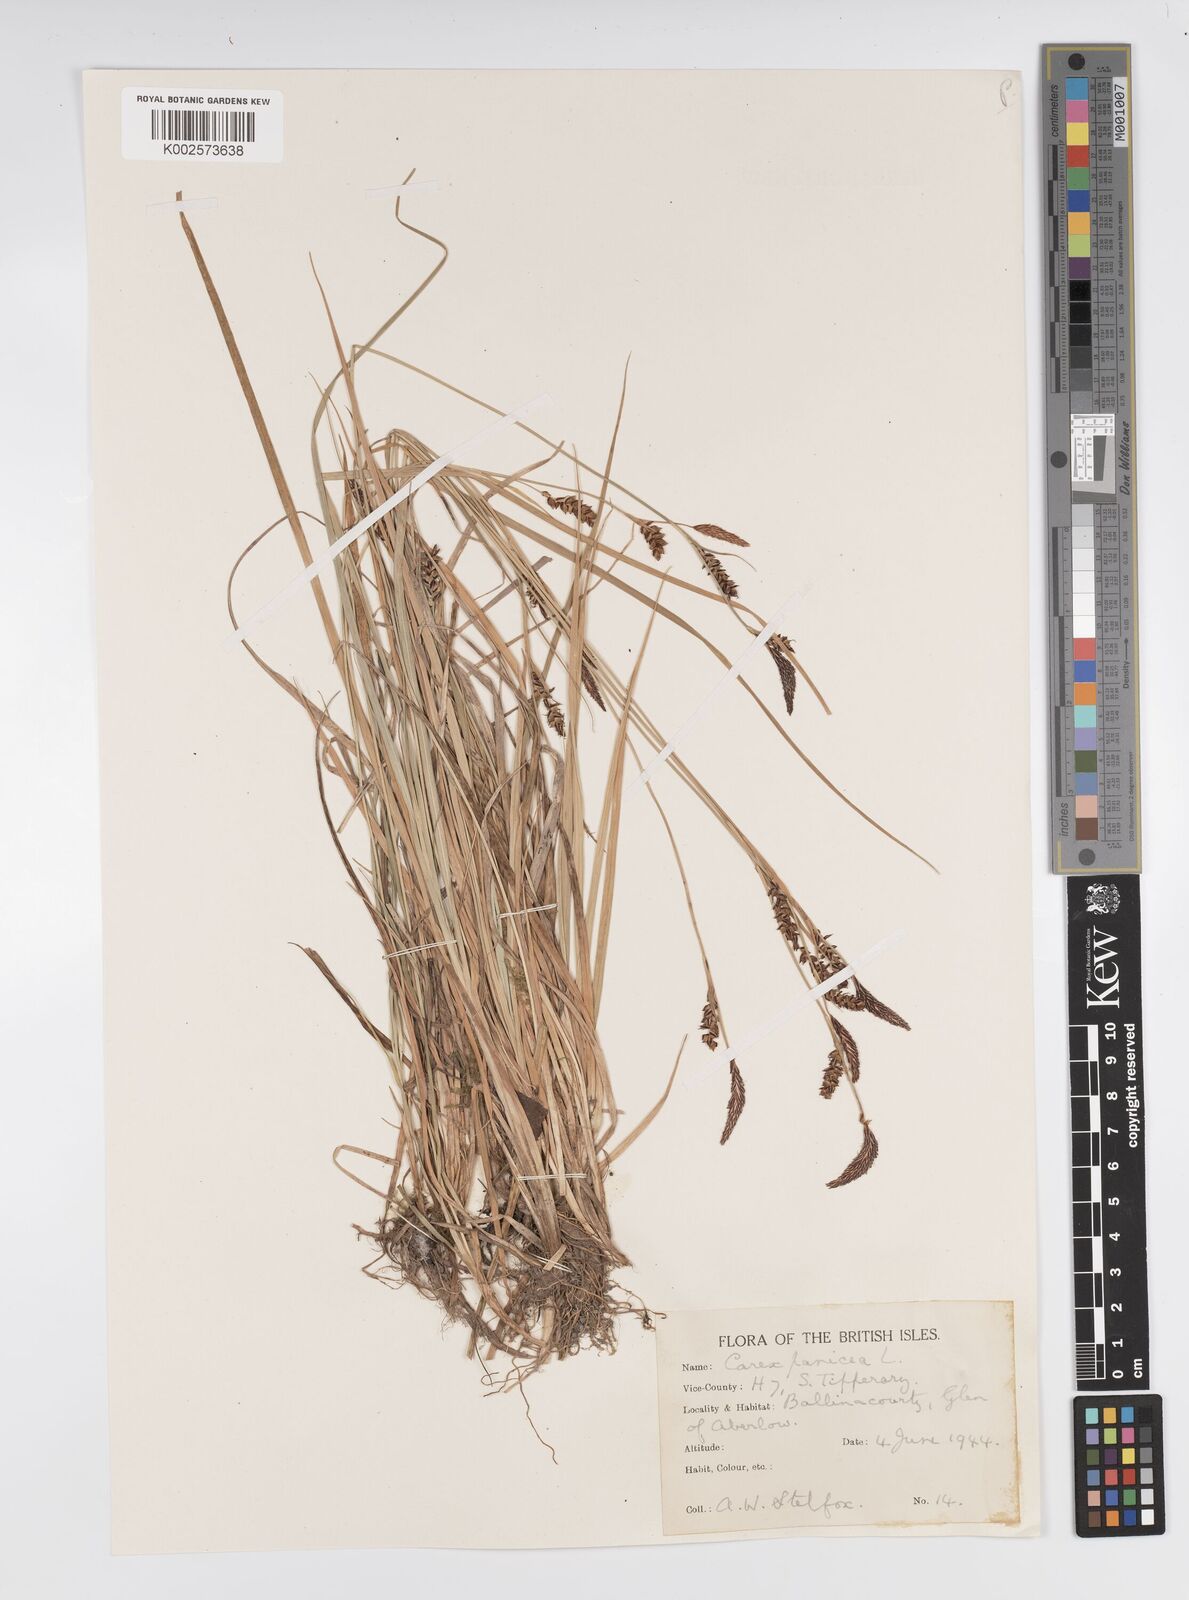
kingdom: Plantae
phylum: Tracheophyta
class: Liliopsida
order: Poales
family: Cyperaceae
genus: Carex
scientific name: Carex panicea
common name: Carnation sedge
